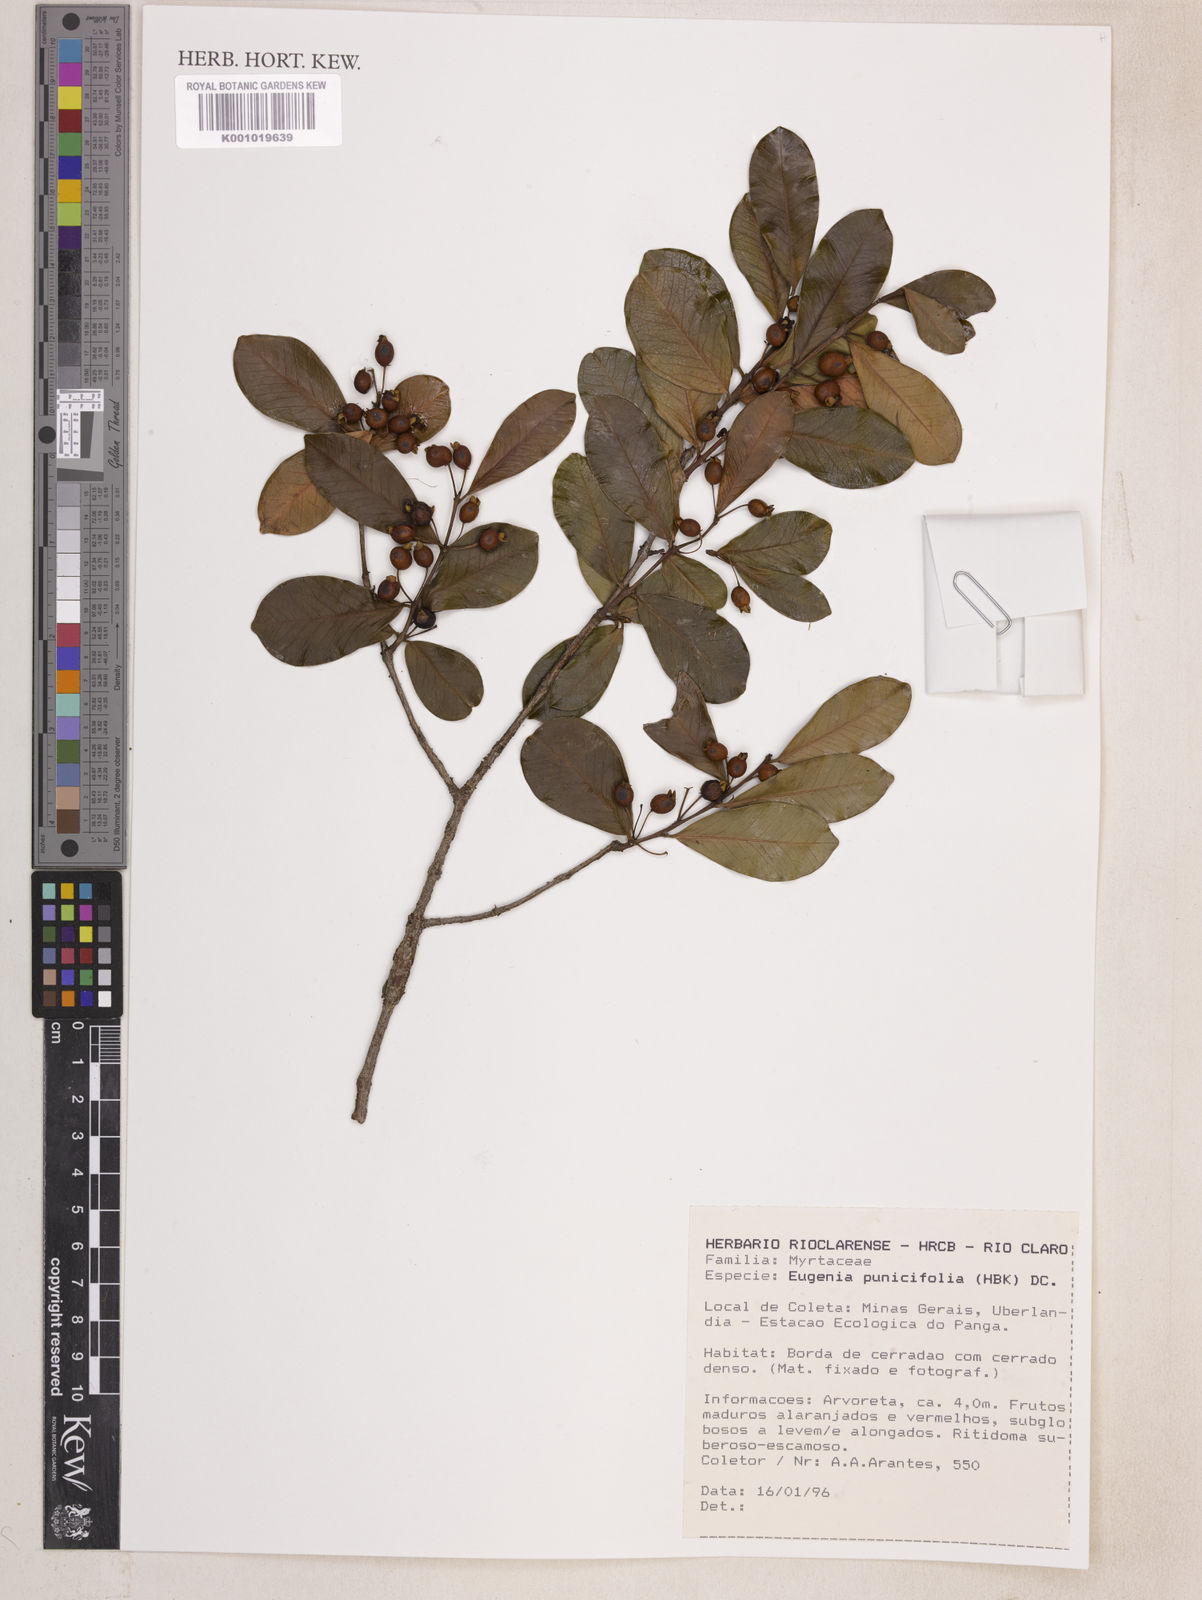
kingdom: Plantae
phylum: Tracheophyta
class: Magnoliopsida
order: Myrtales
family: Myrtaceae
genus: Eugenia
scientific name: Eugenia punicifolia
